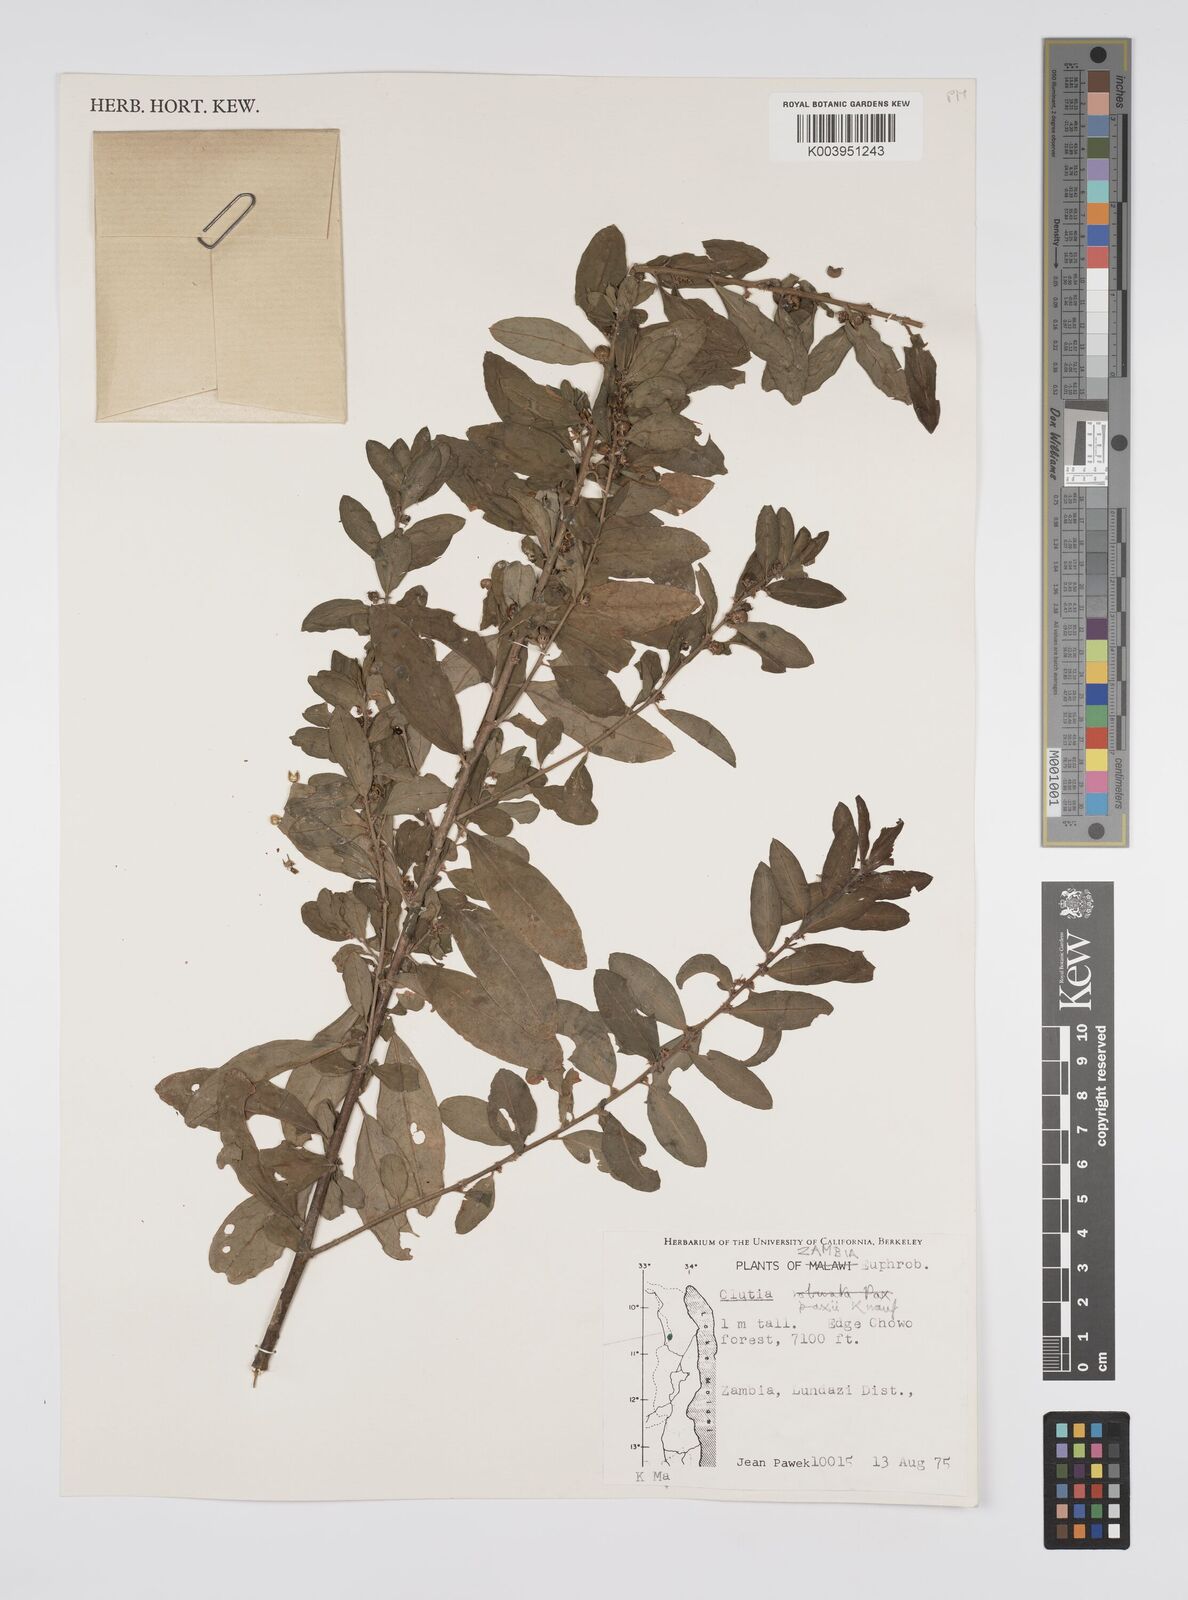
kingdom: Plantae
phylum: Tracheophyta
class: Magnoliopsida
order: Malpighiales
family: Peraceae
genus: Clutia
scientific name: Clutia paxii
